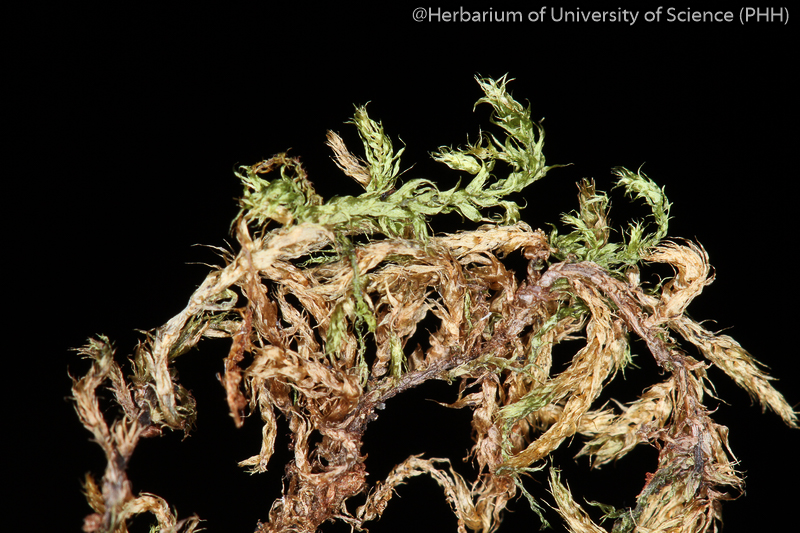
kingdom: Plantae
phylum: Bryophyta
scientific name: Bryophyta
